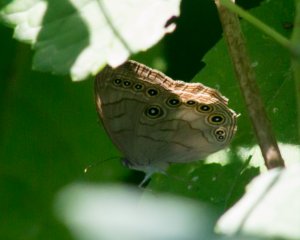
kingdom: Animalia
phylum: Arthropoda
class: Insecta
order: Lepidoptera
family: Nymphalidae
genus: Lethe
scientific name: Lethe eurydice
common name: Appalachian Eyed Brown
